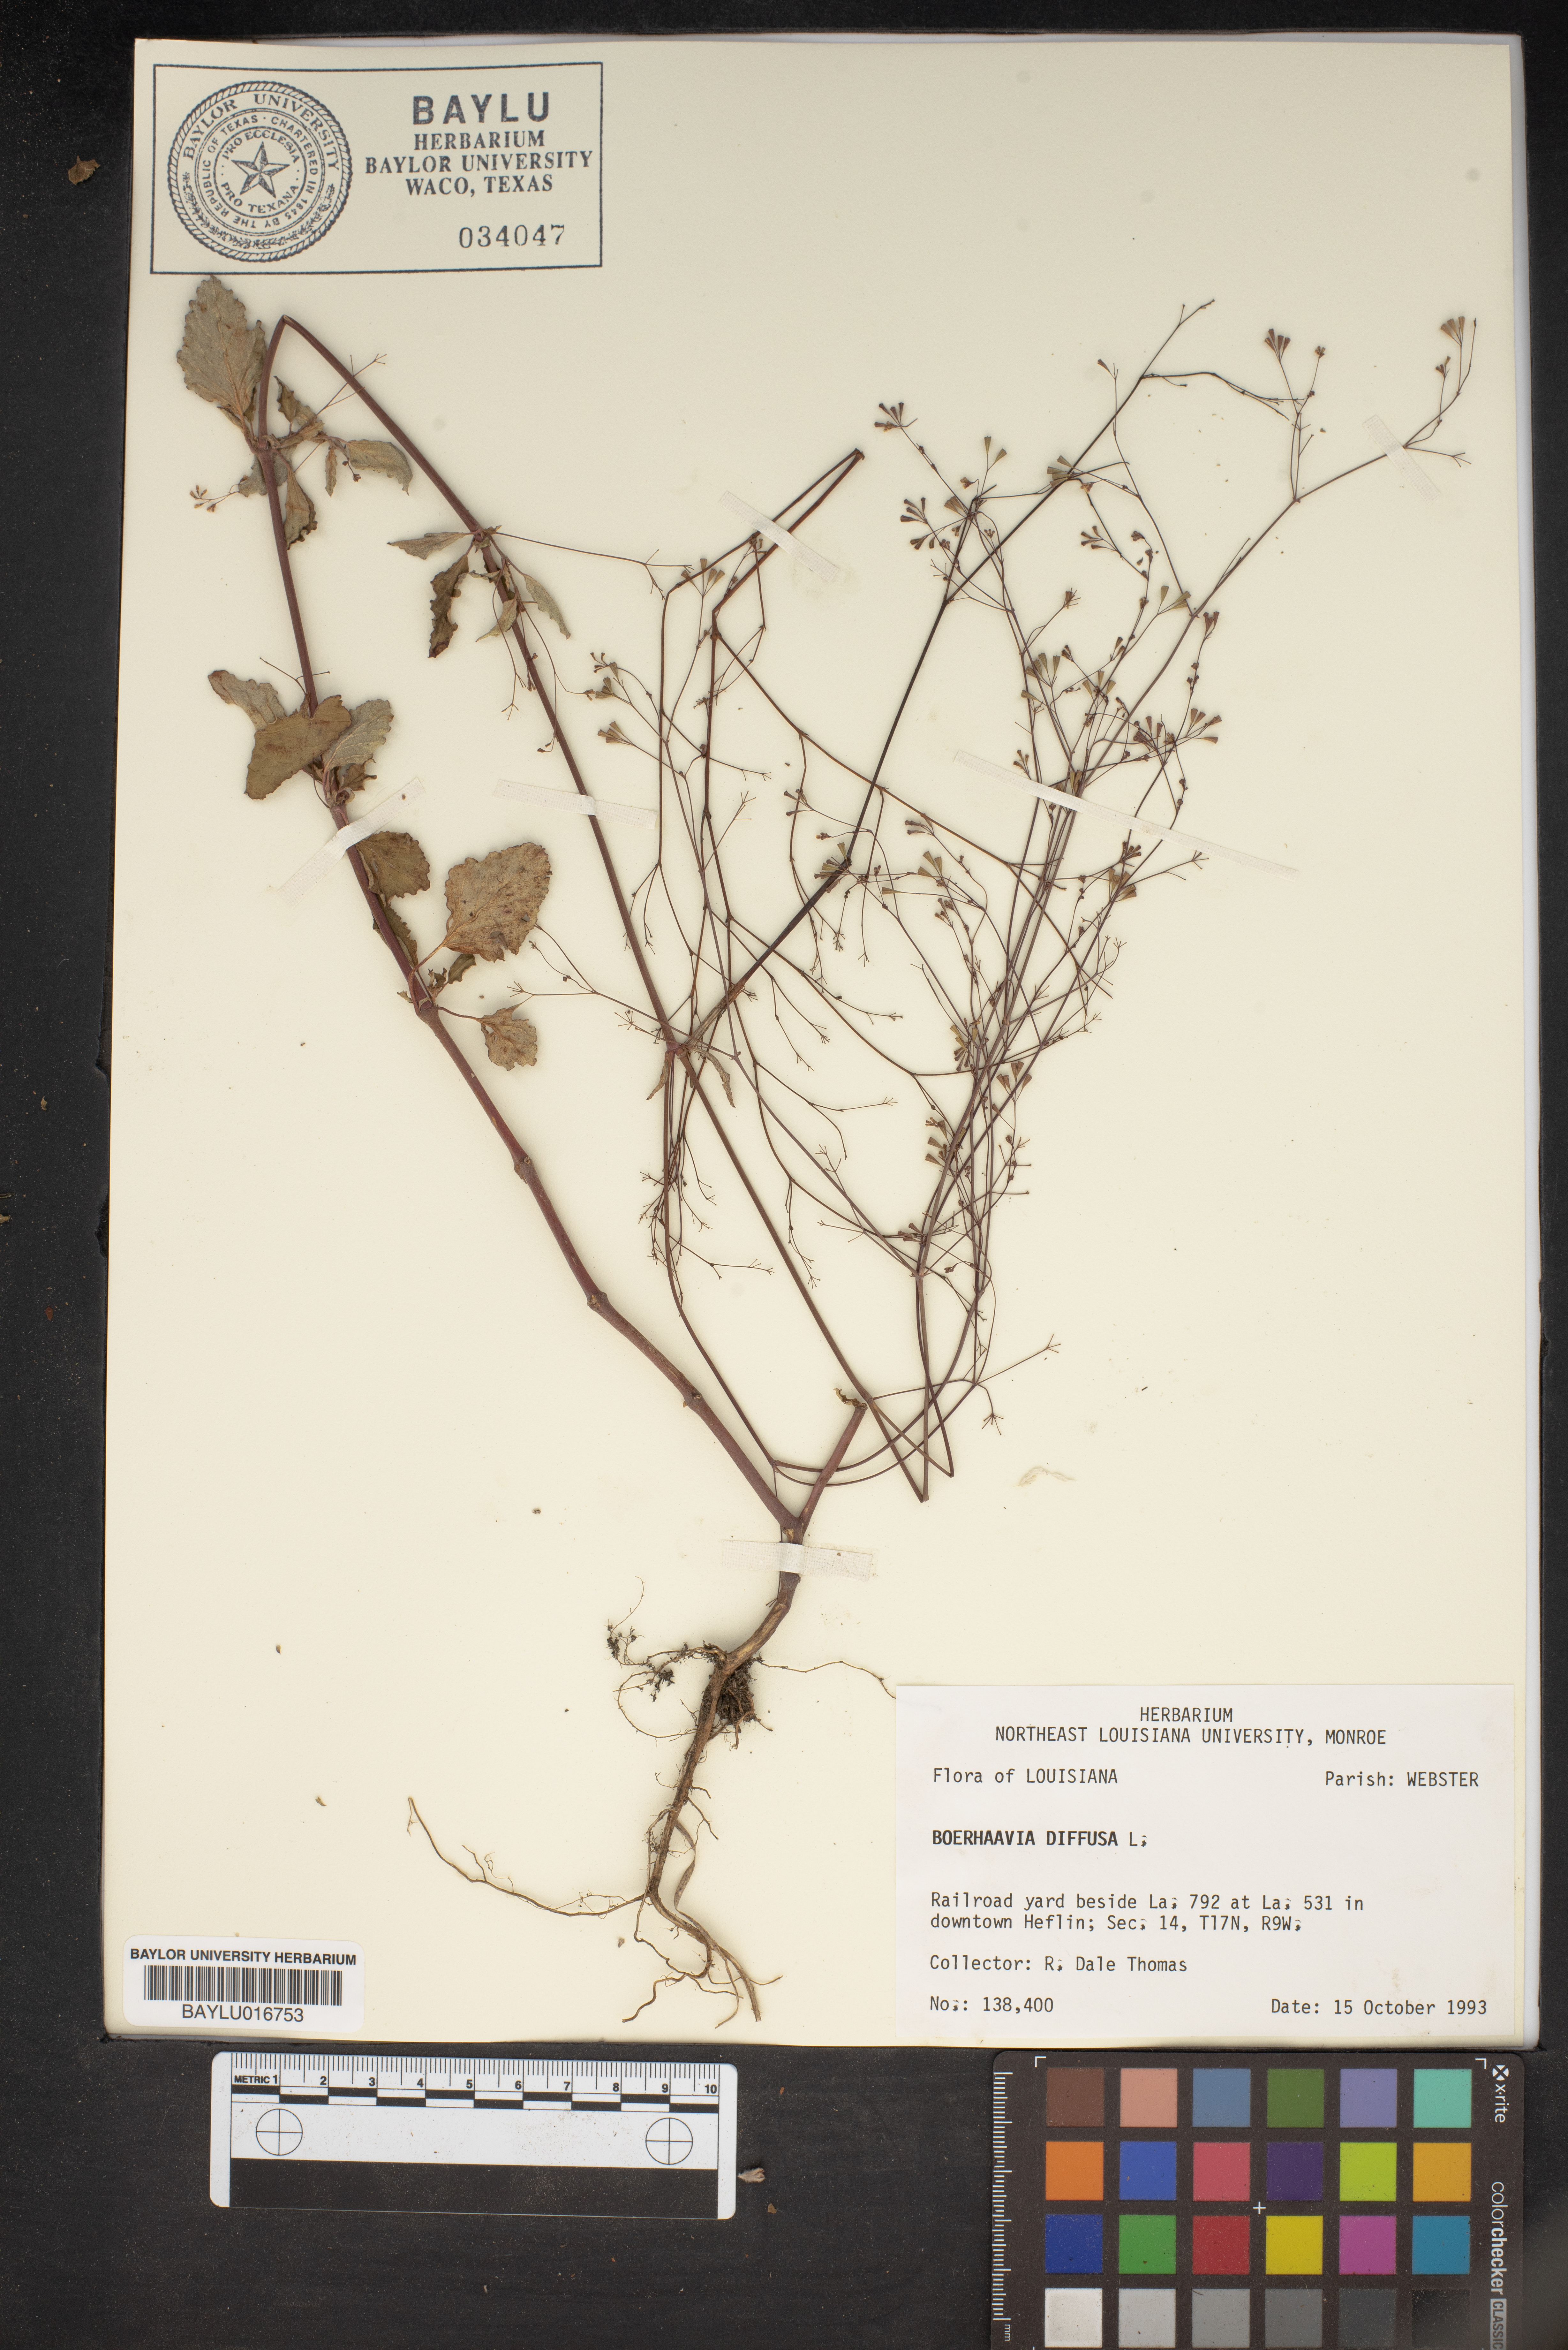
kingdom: Plantae
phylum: Tracheophyta
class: Magnoliopsida
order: Caryophyllales
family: Nyctaginaceae
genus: Boerhavia
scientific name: Boerhavia diffusa
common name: Red spiderling
